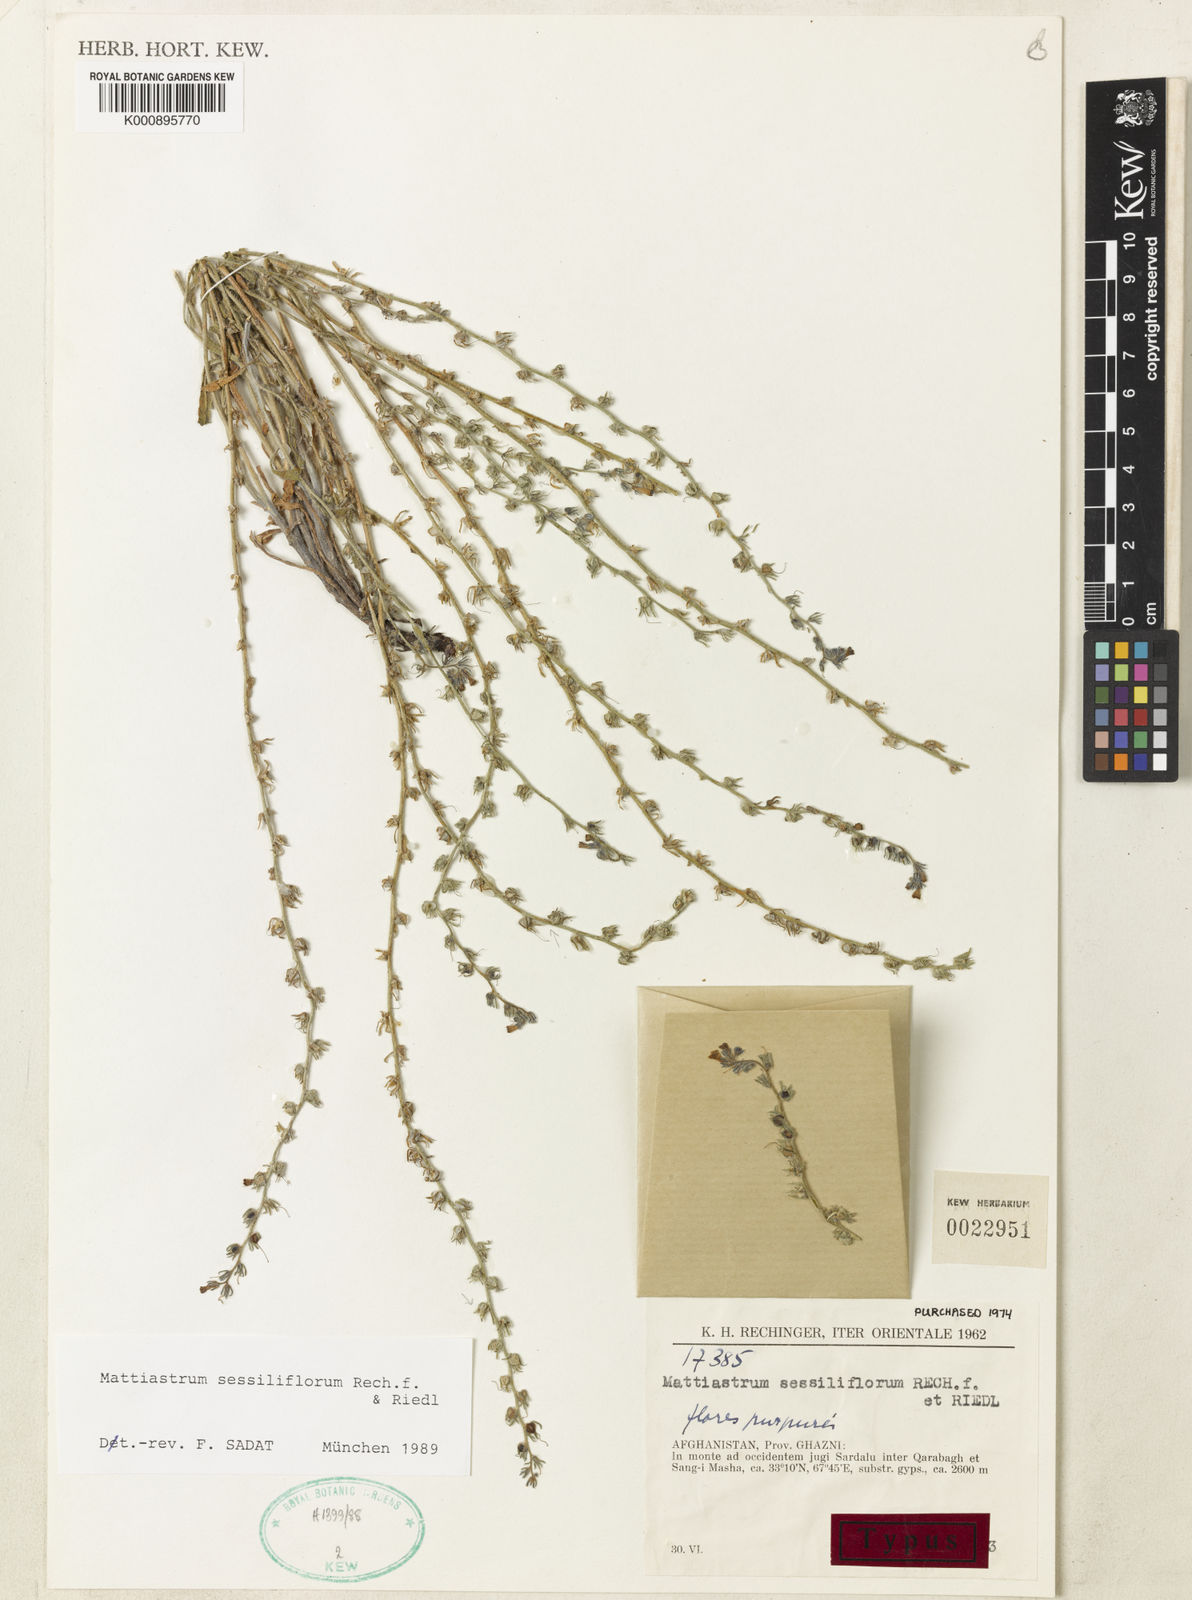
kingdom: Plantae
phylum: Tracheophyta
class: Magnoliopsida
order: Boraginales
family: Boraginaceae
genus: Paracaryum
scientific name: Paracaryum
